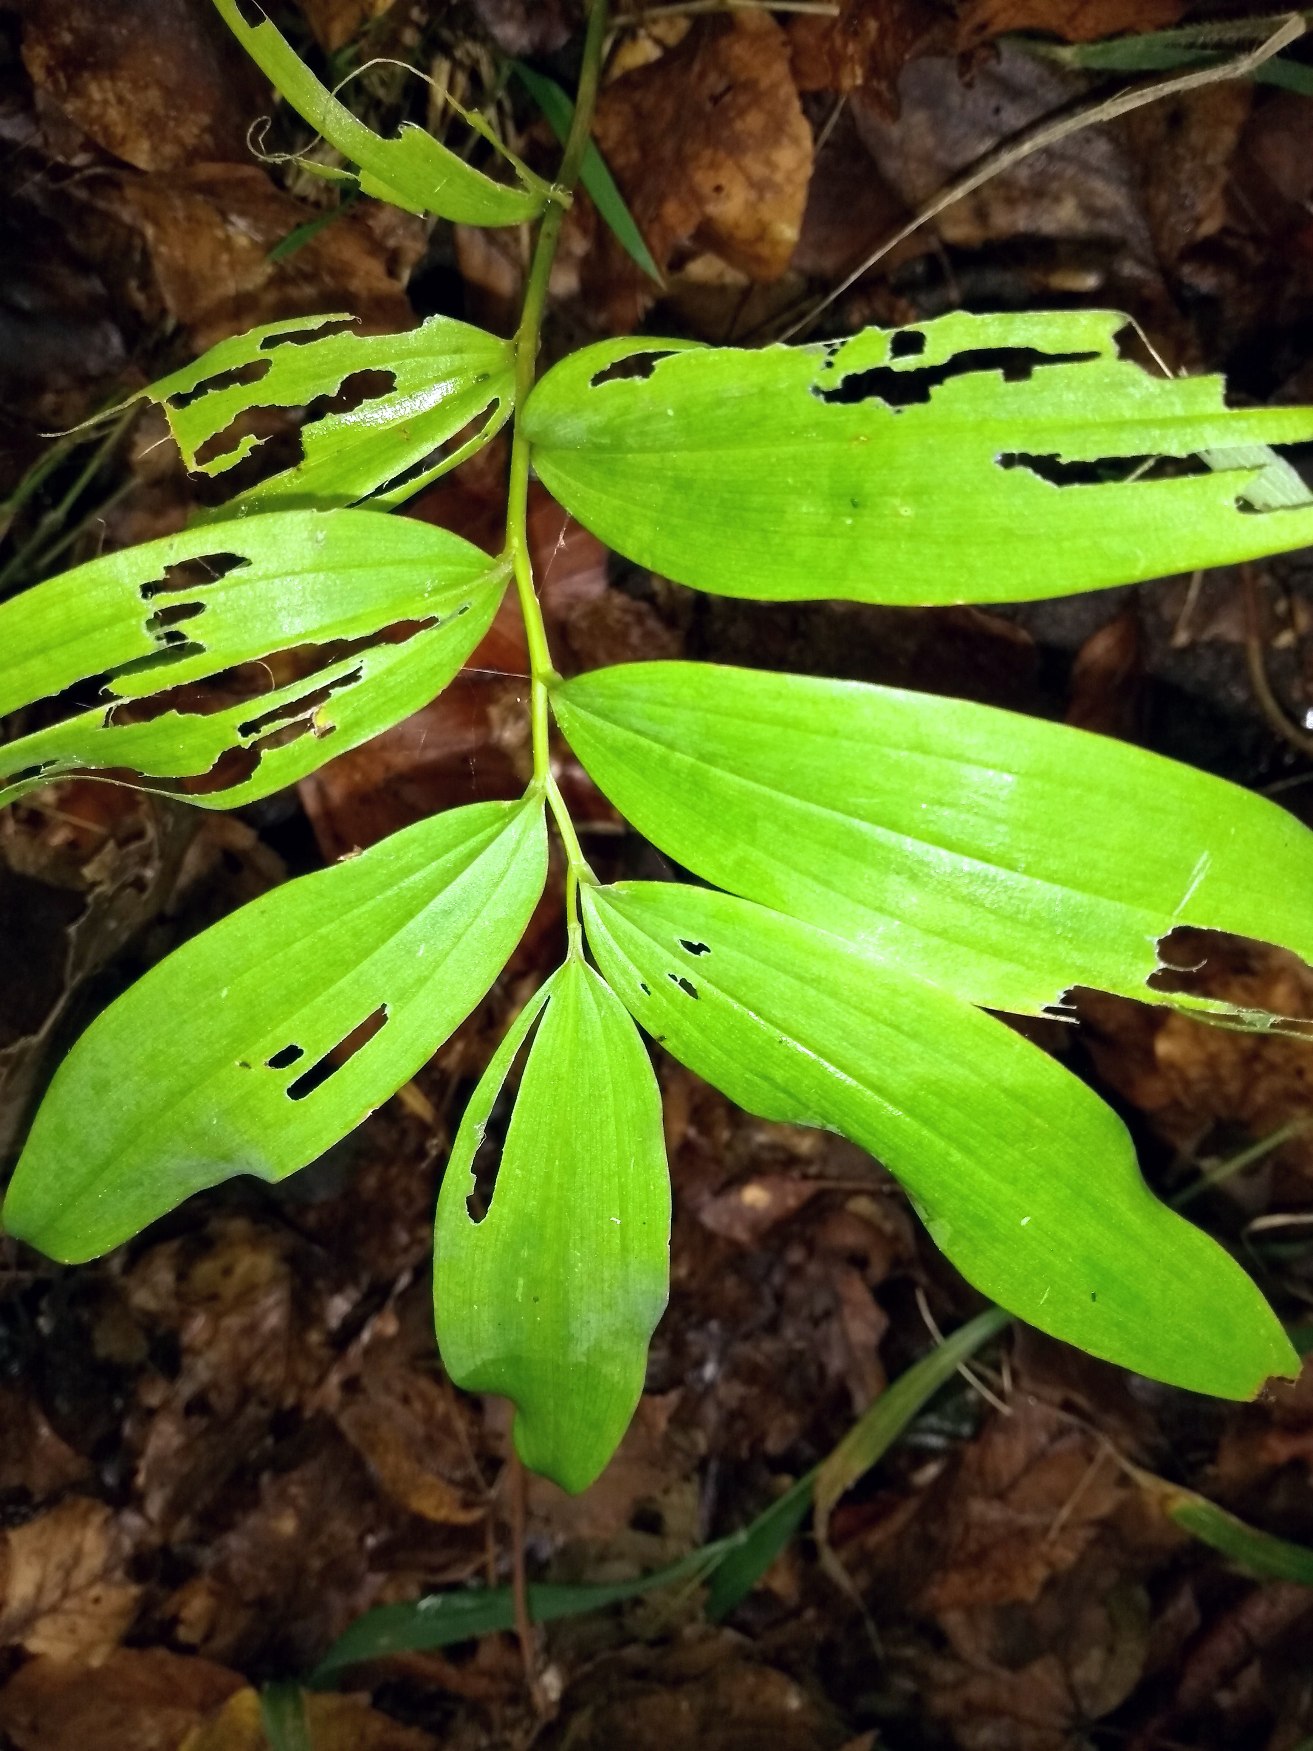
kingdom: Plantae
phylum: Tracheophyta
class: Liliopsida
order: Asparagales
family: Asparagaceae
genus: Polygonatum
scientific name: Polygonatum
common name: Konvalslægten
